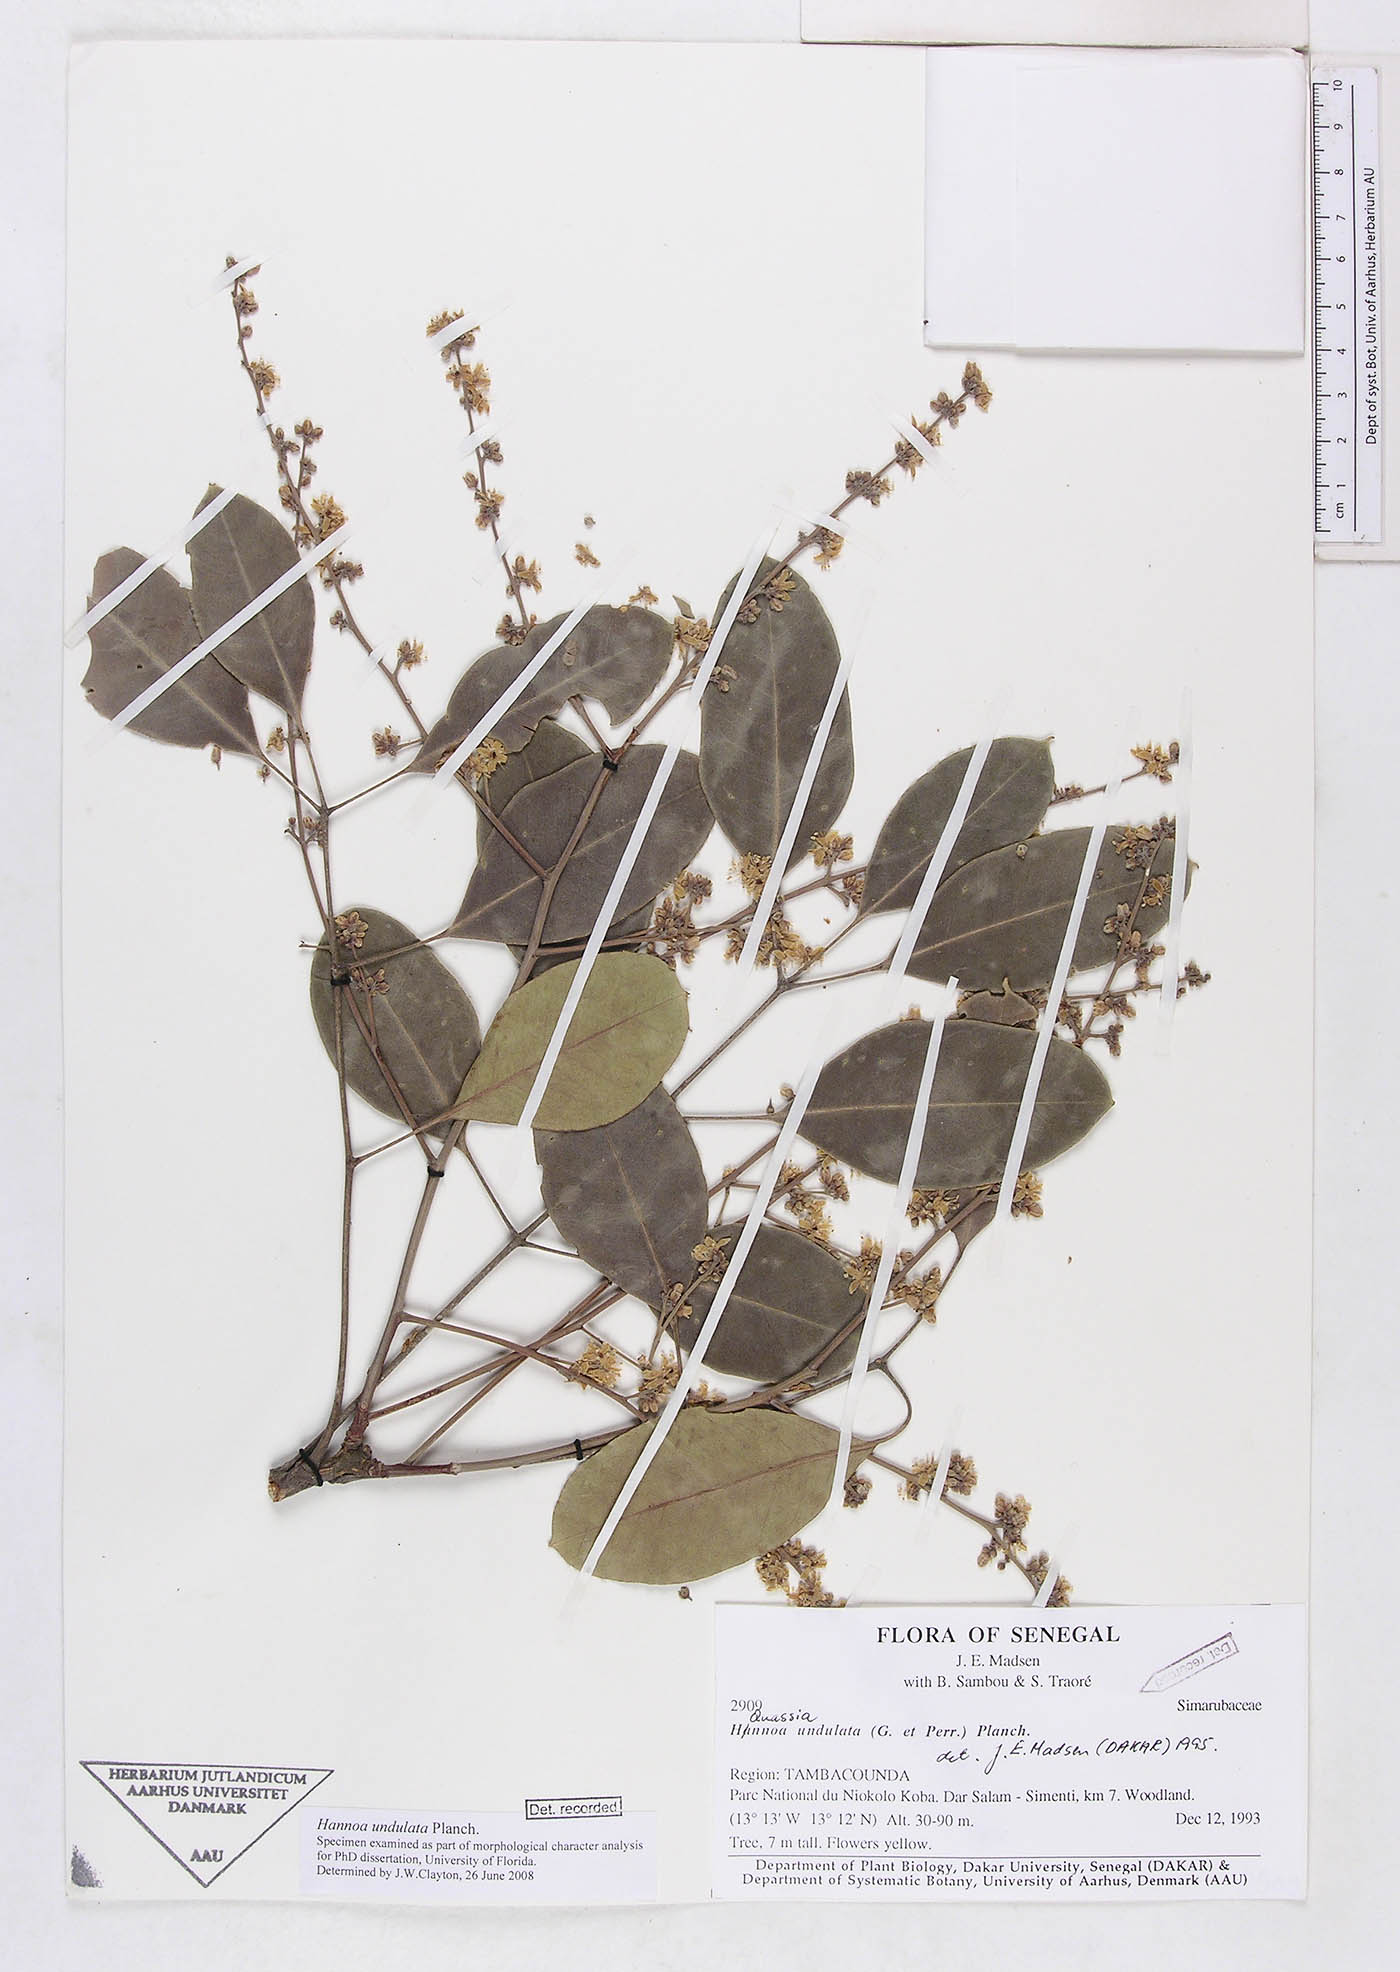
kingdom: Plantae
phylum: Tracheophyta
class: Magnoliopsida
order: Sapindales
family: Simaroubaceae
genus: Odyendyea
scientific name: Odyendyea klaineana
